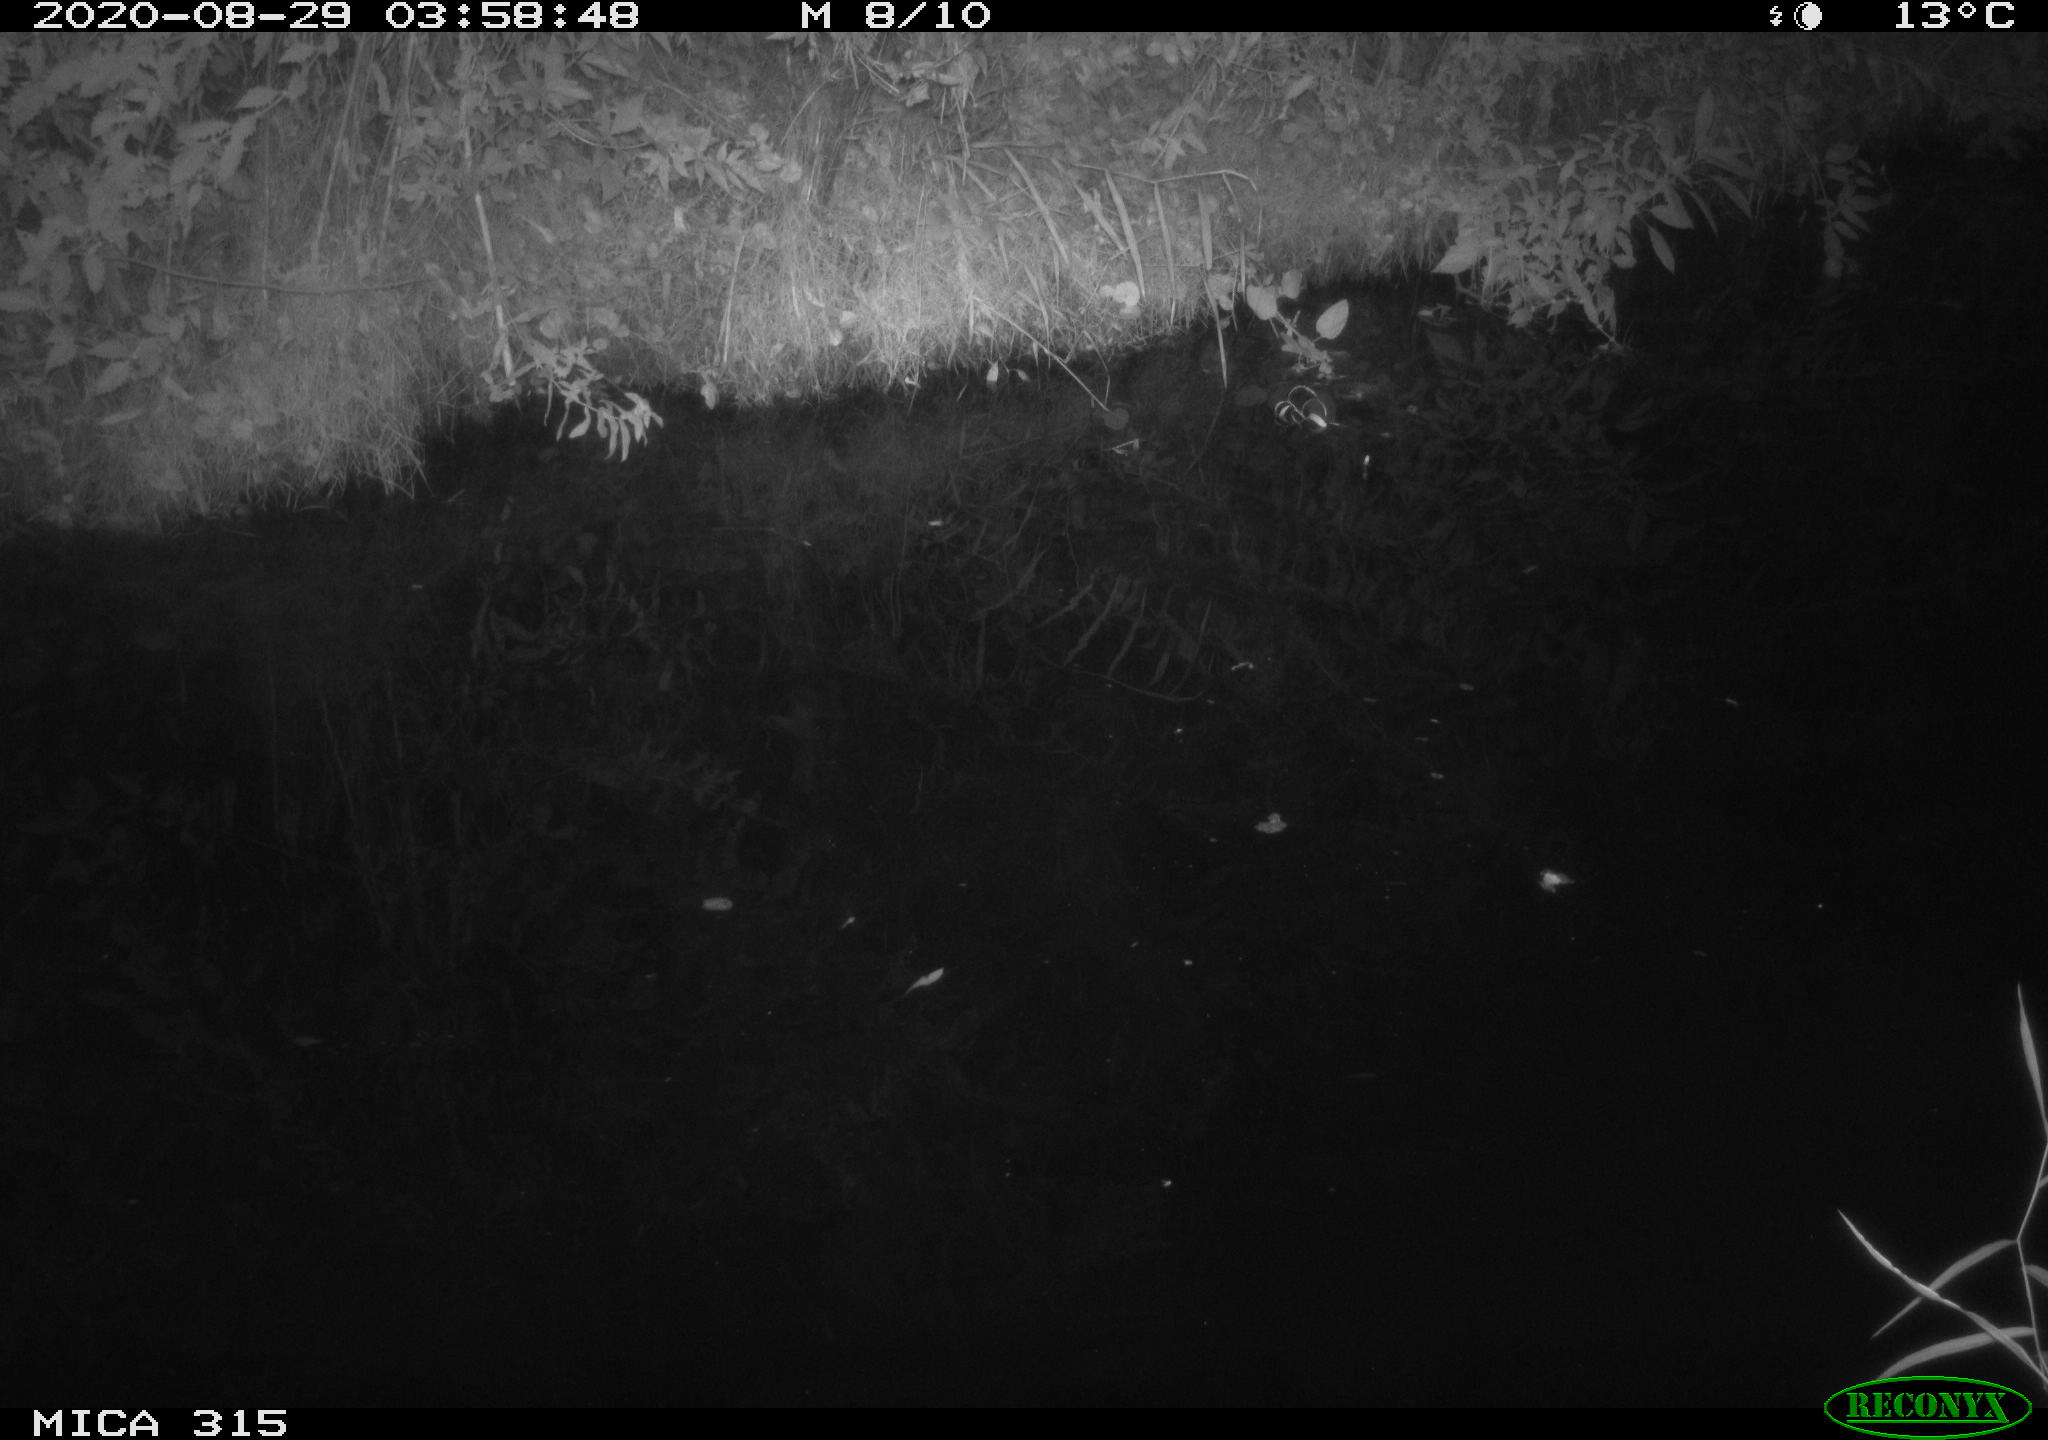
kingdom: Animalia
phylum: Chordata
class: Aves
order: Anseriformes
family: Anatidae
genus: Anas
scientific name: Anas platyrhynchos
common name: Mallard
